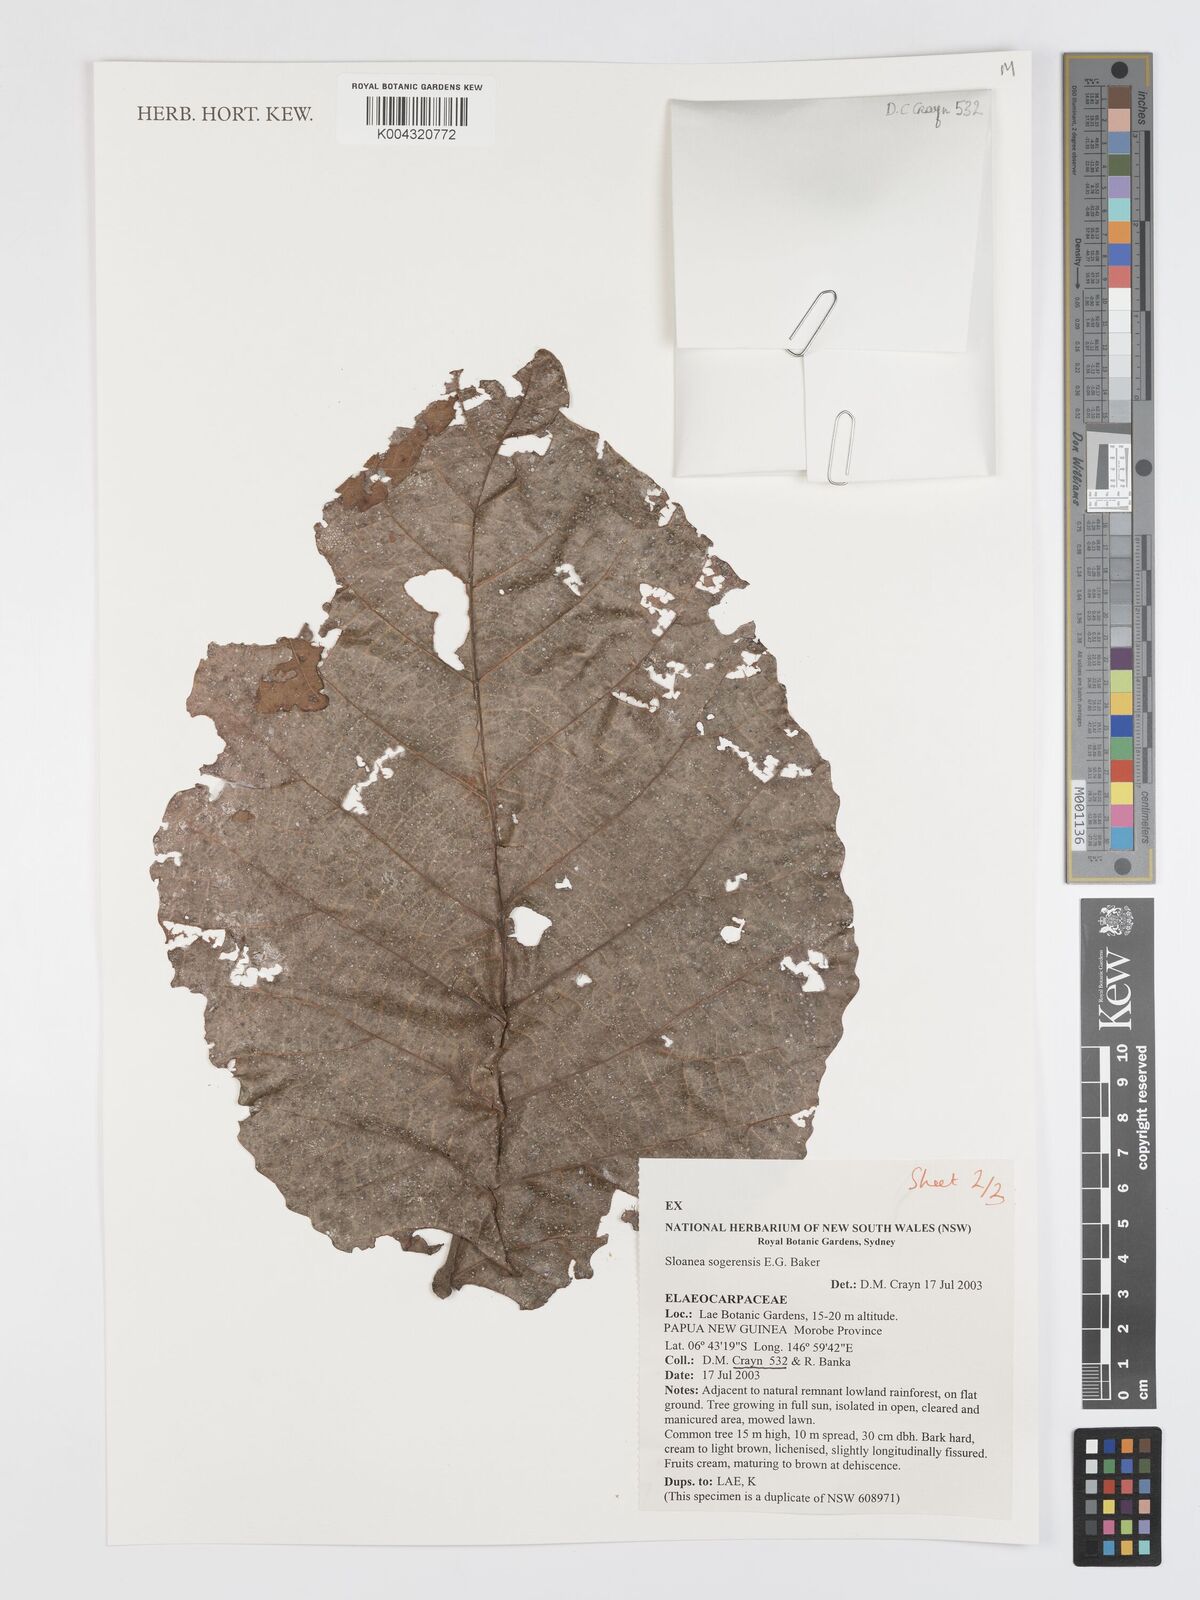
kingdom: Plantae
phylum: Tracheophyta
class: Magnoliopsida
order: Oxalidales
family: Elaeocarpaceae
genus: Sloanea
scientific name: Sloanea sogerensis
